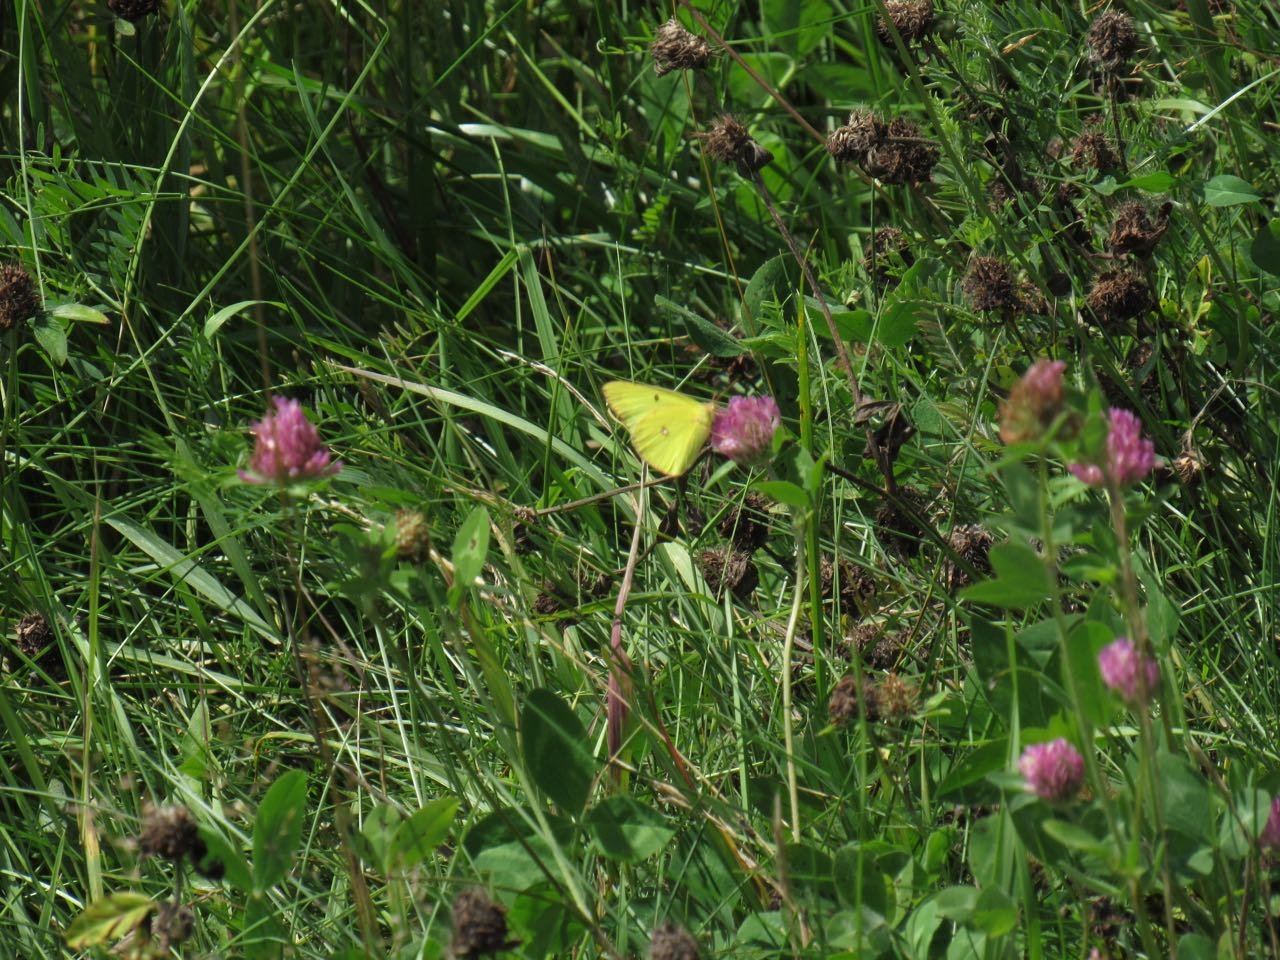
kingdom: Animalia
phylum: Arthropoda
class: Insecta
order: Lepidoptera
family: Pieridae
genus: Colias
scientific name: Colias philodice
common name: Clouded Sulphur
